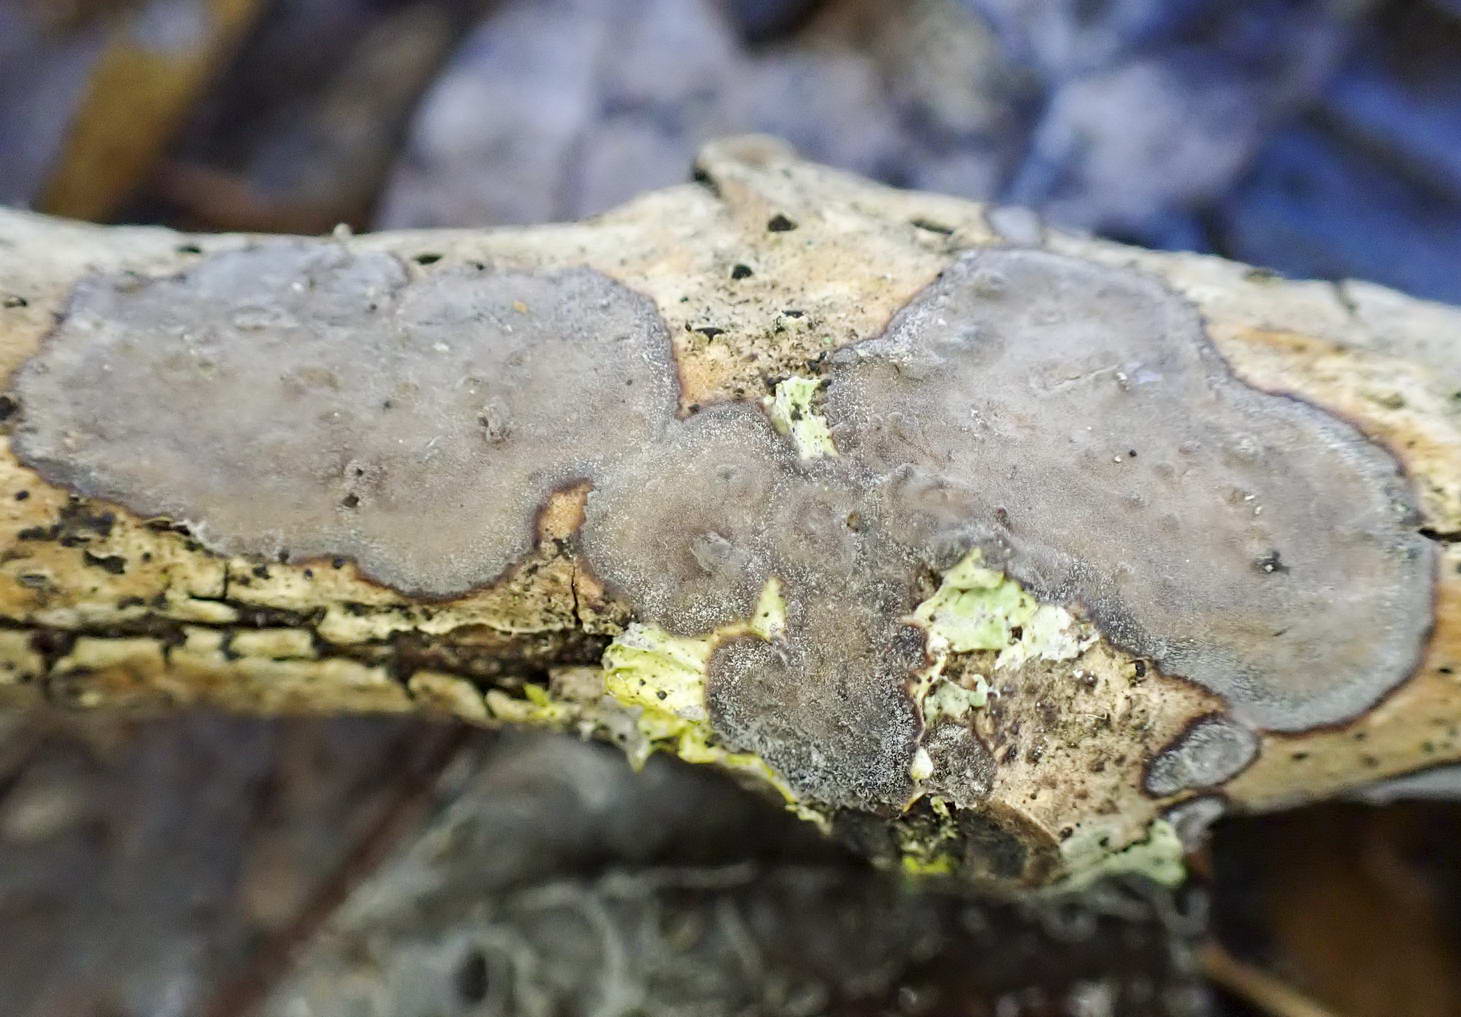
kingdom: Fungi
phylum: Basidiomycota
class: Agaricomycetes
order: Russulales
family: Peniophoraceae
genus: Peniophora
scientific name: Peniophora limitata
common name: mørkrandet voksskind
